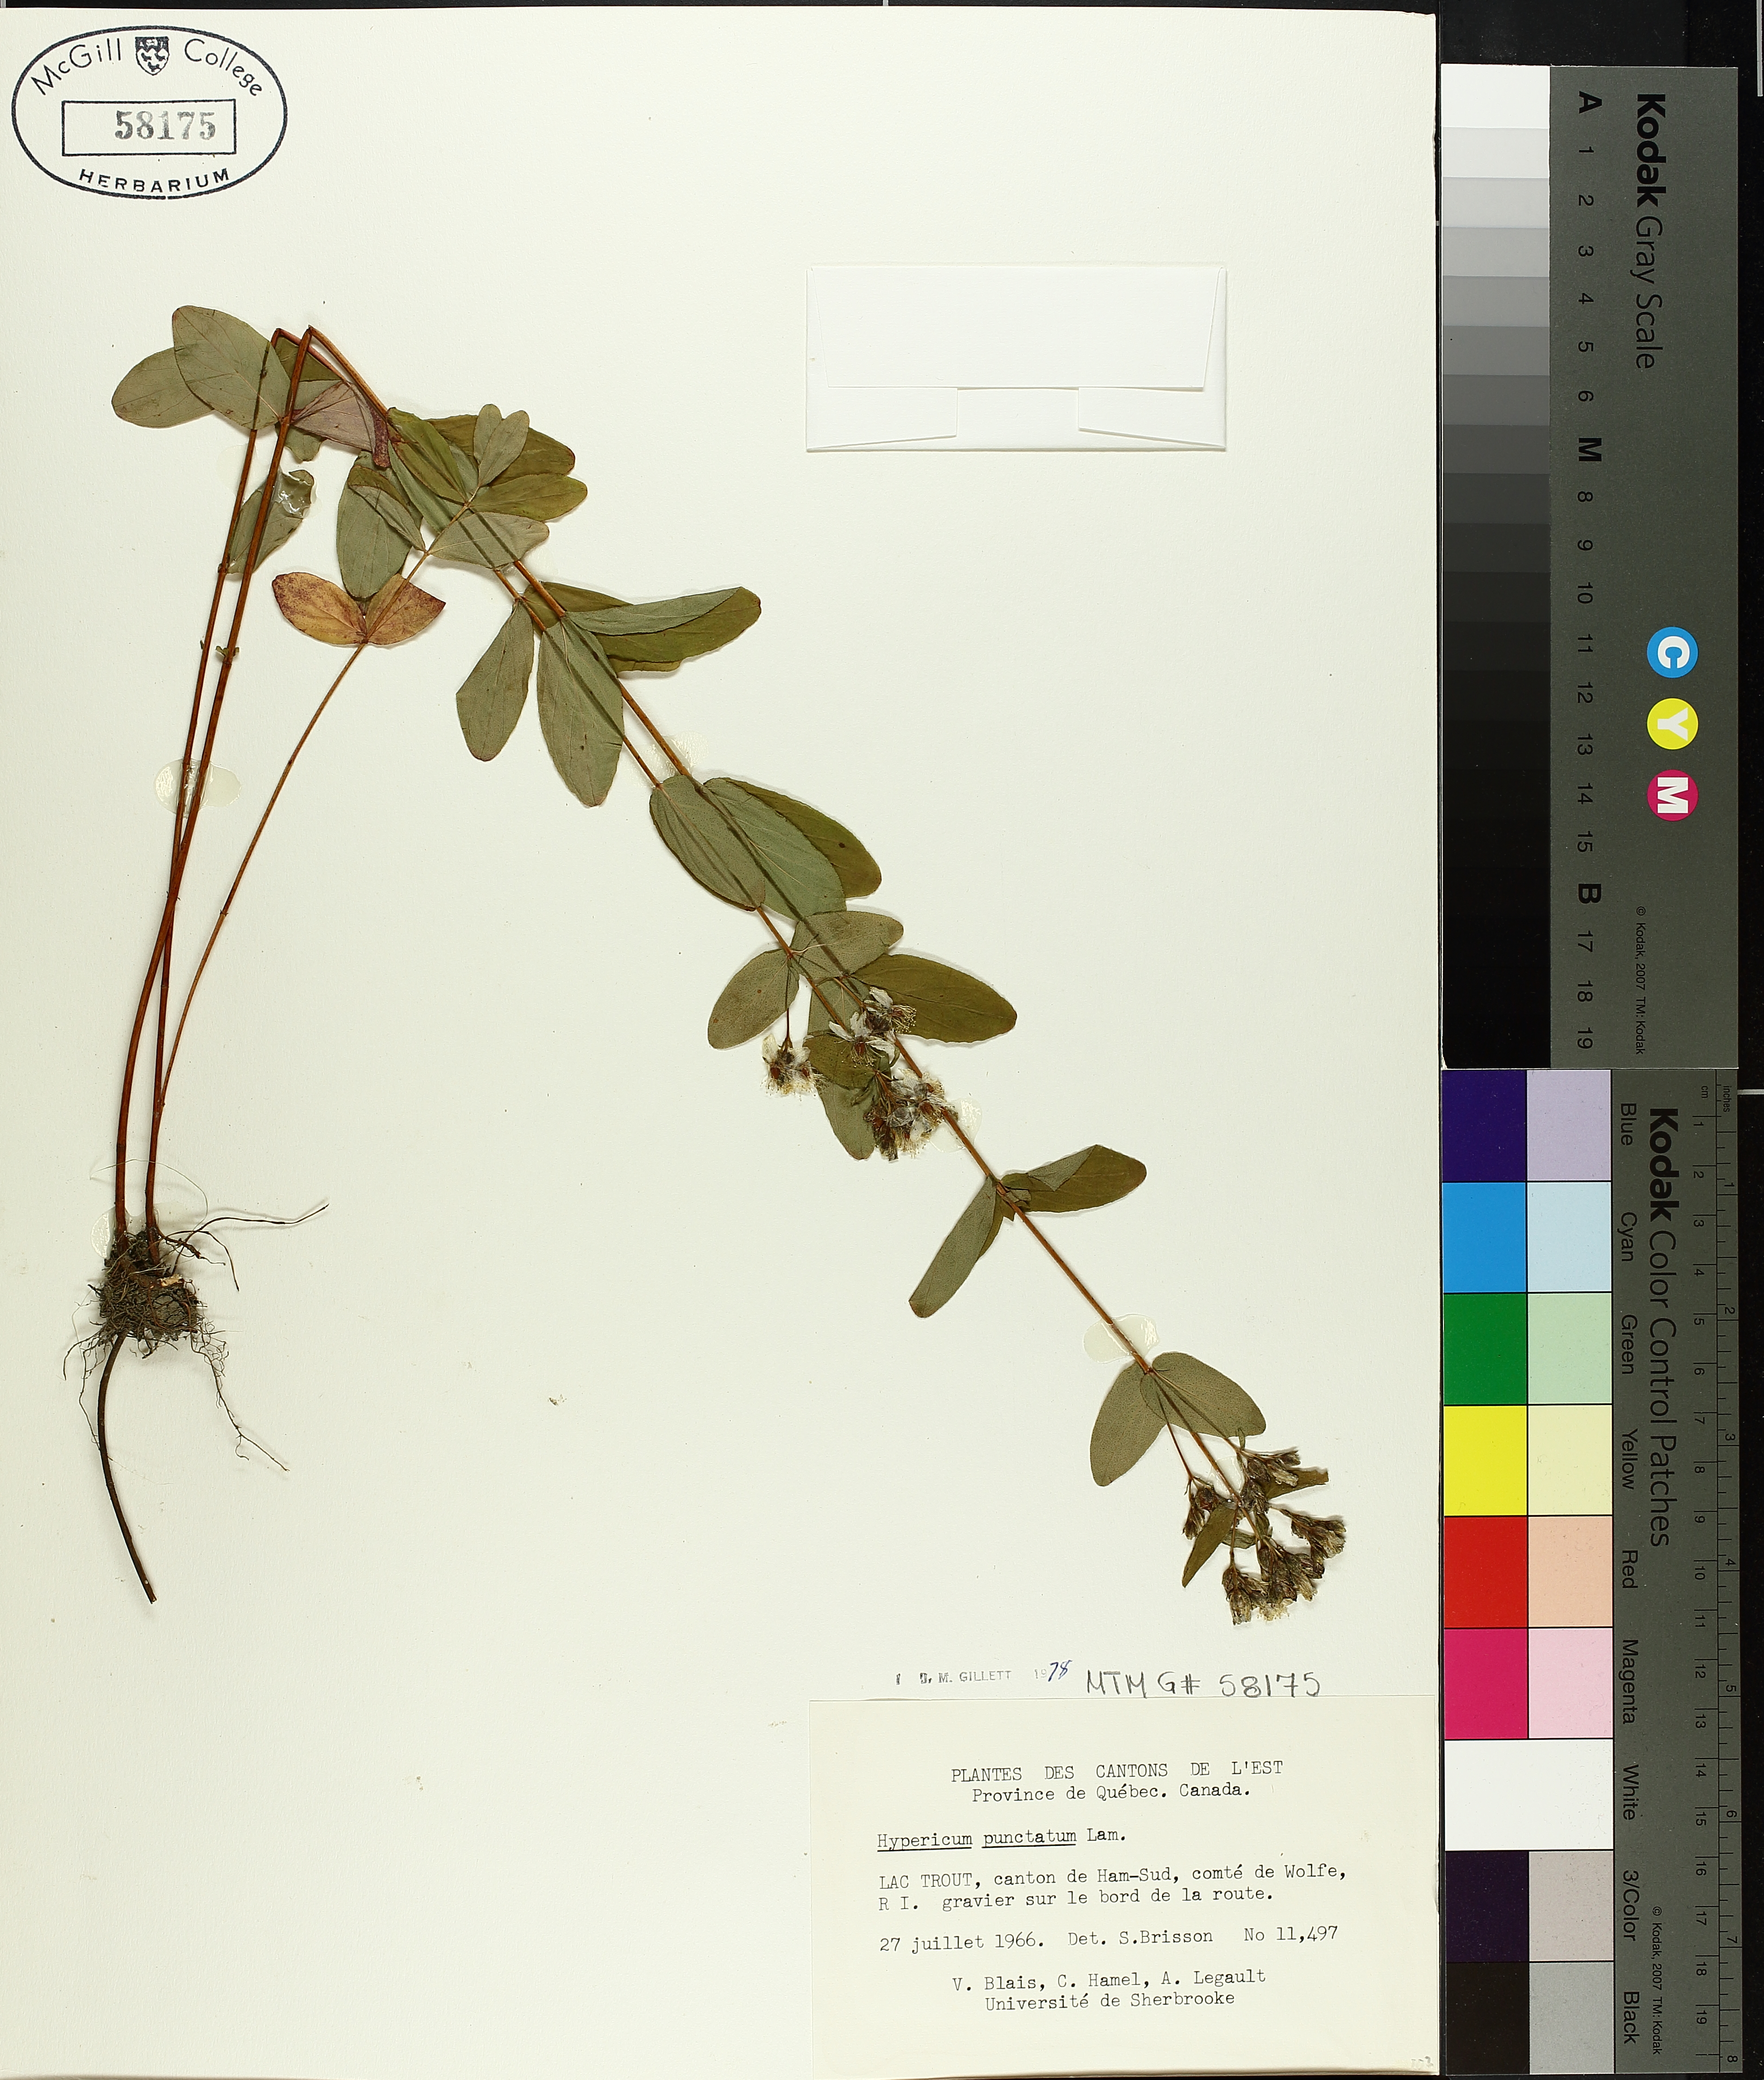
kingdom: Plantae
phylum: Tracheophyta
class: Magnoliopsida
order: Malpighiales
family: Hypericaceae
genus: Hypericum
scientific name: Hypericum punctatum
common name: Spotted st. john's-wort
